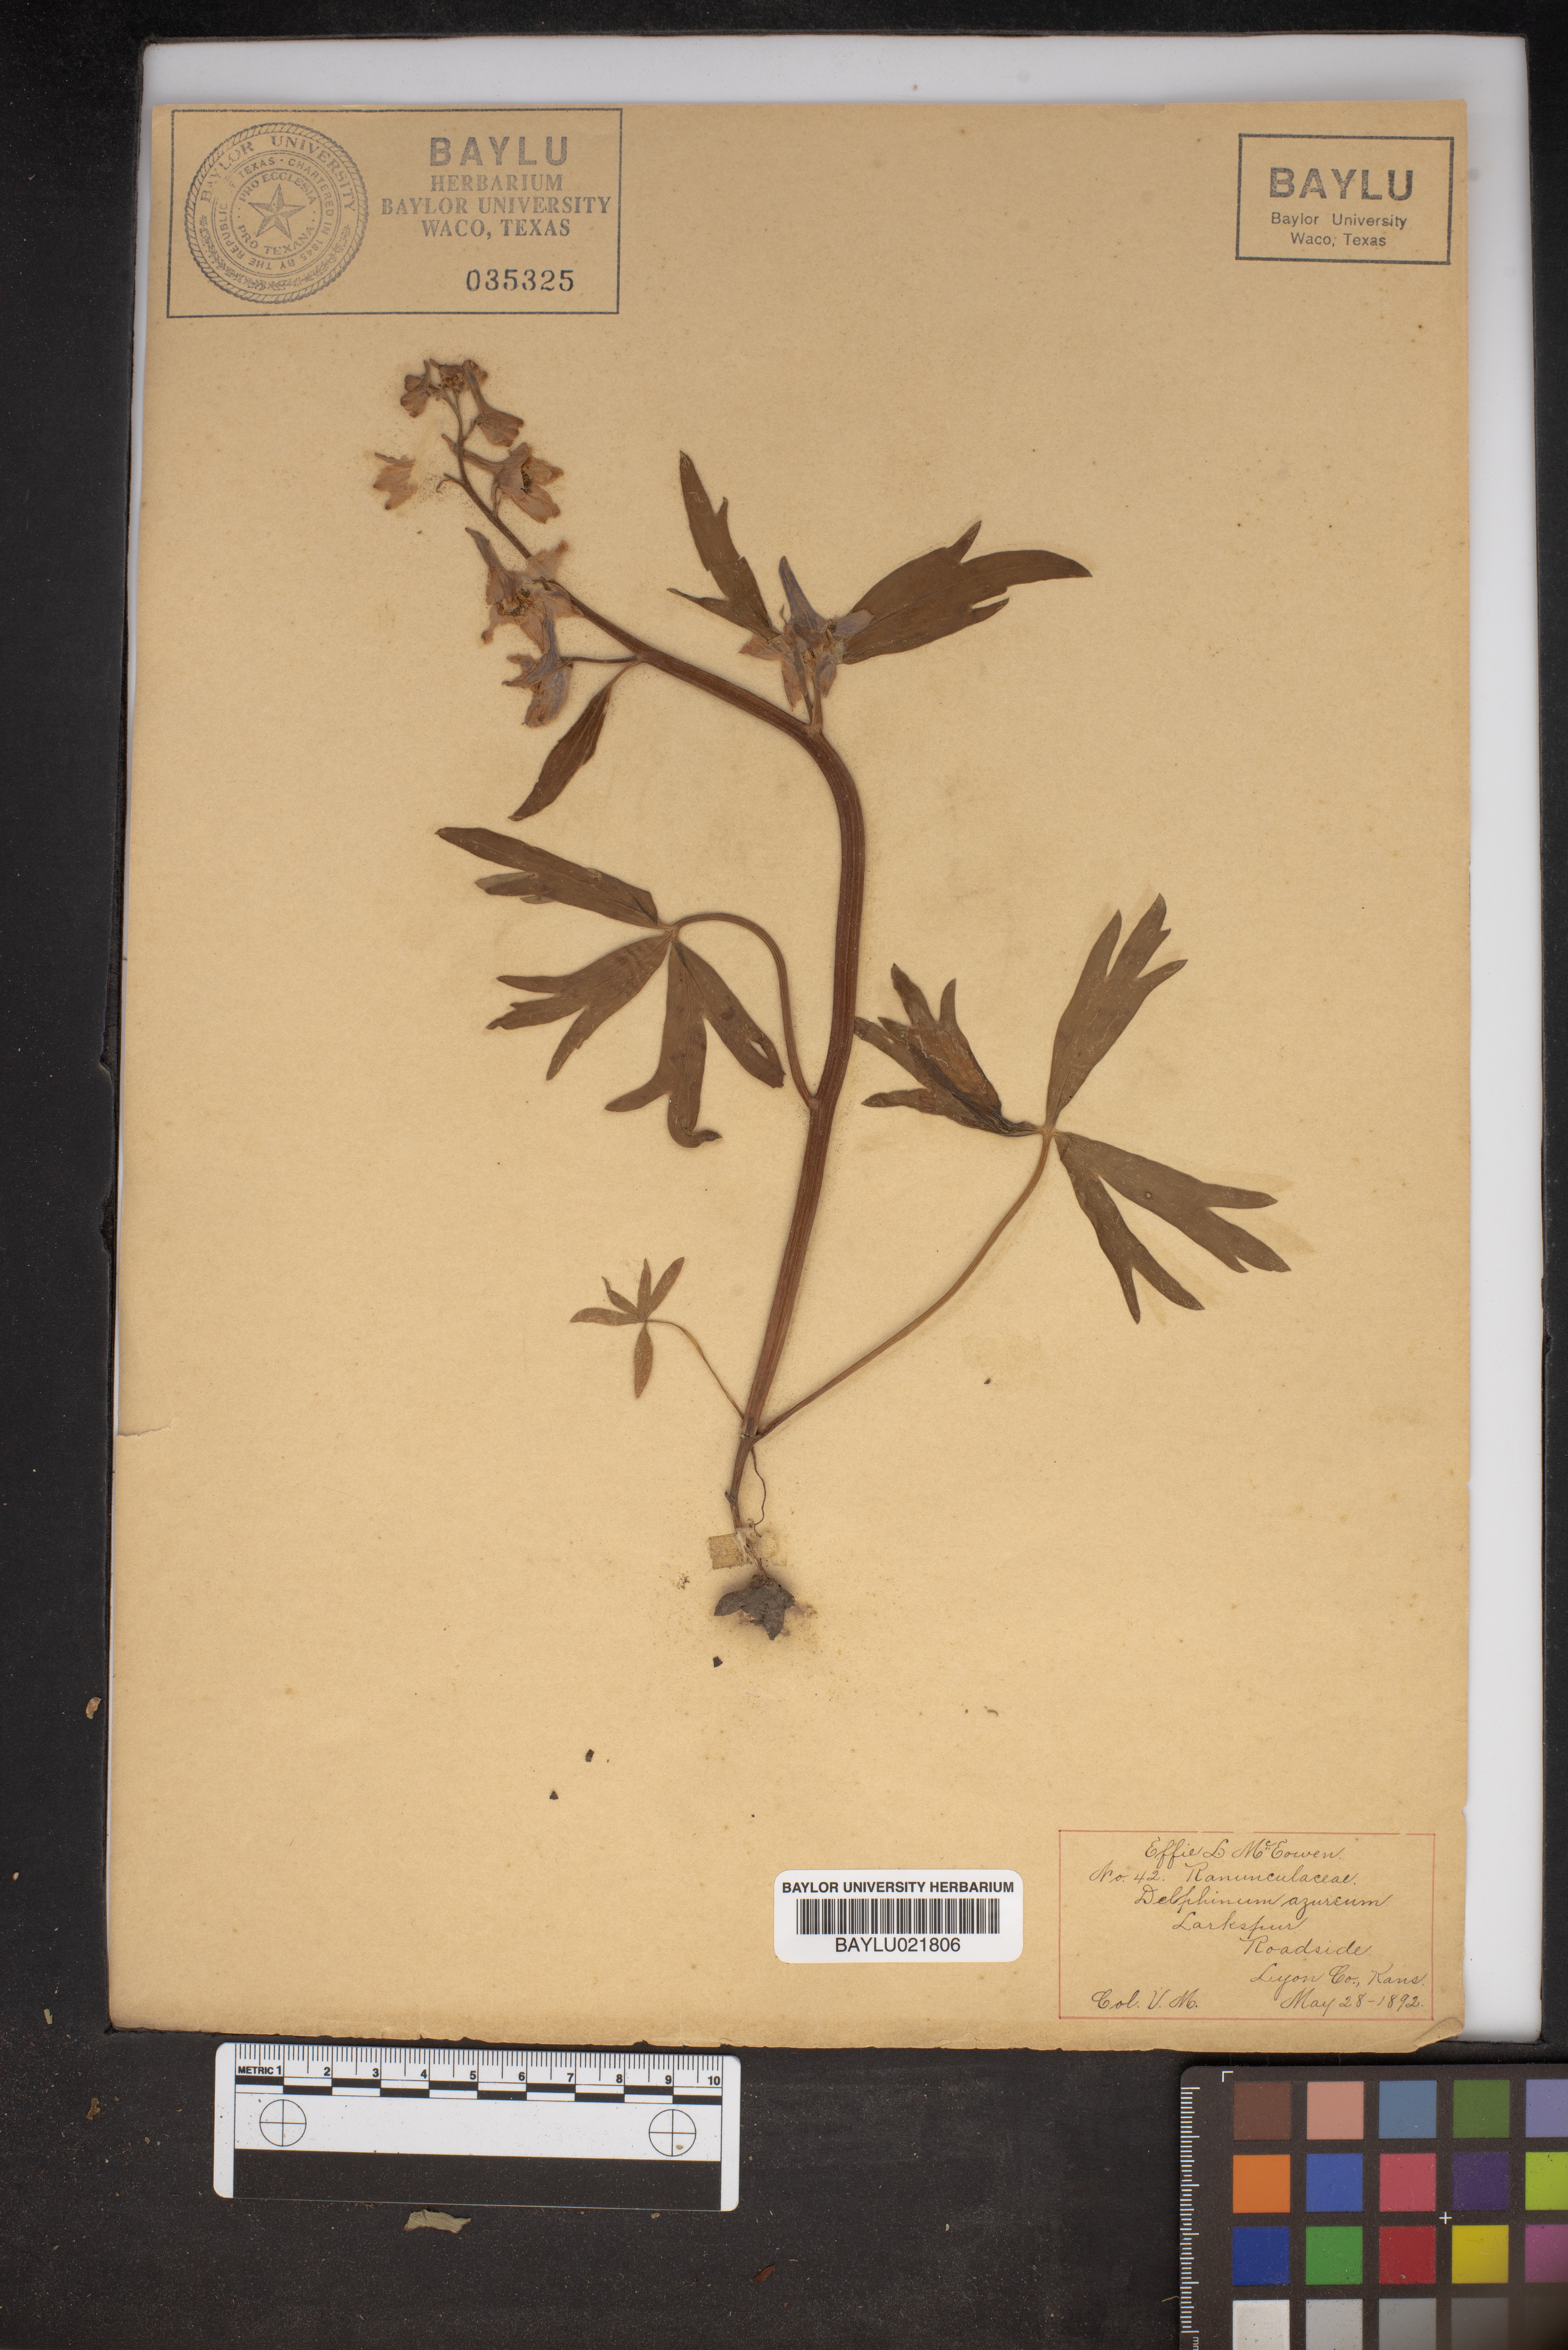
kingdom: Plantae
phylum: Tracheophyta
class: Magnoliopsida
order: Ranunculales
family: Ranunculaceae
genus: Delphinium
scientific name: Delphinium carolinianum
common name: Carolina larkspur
